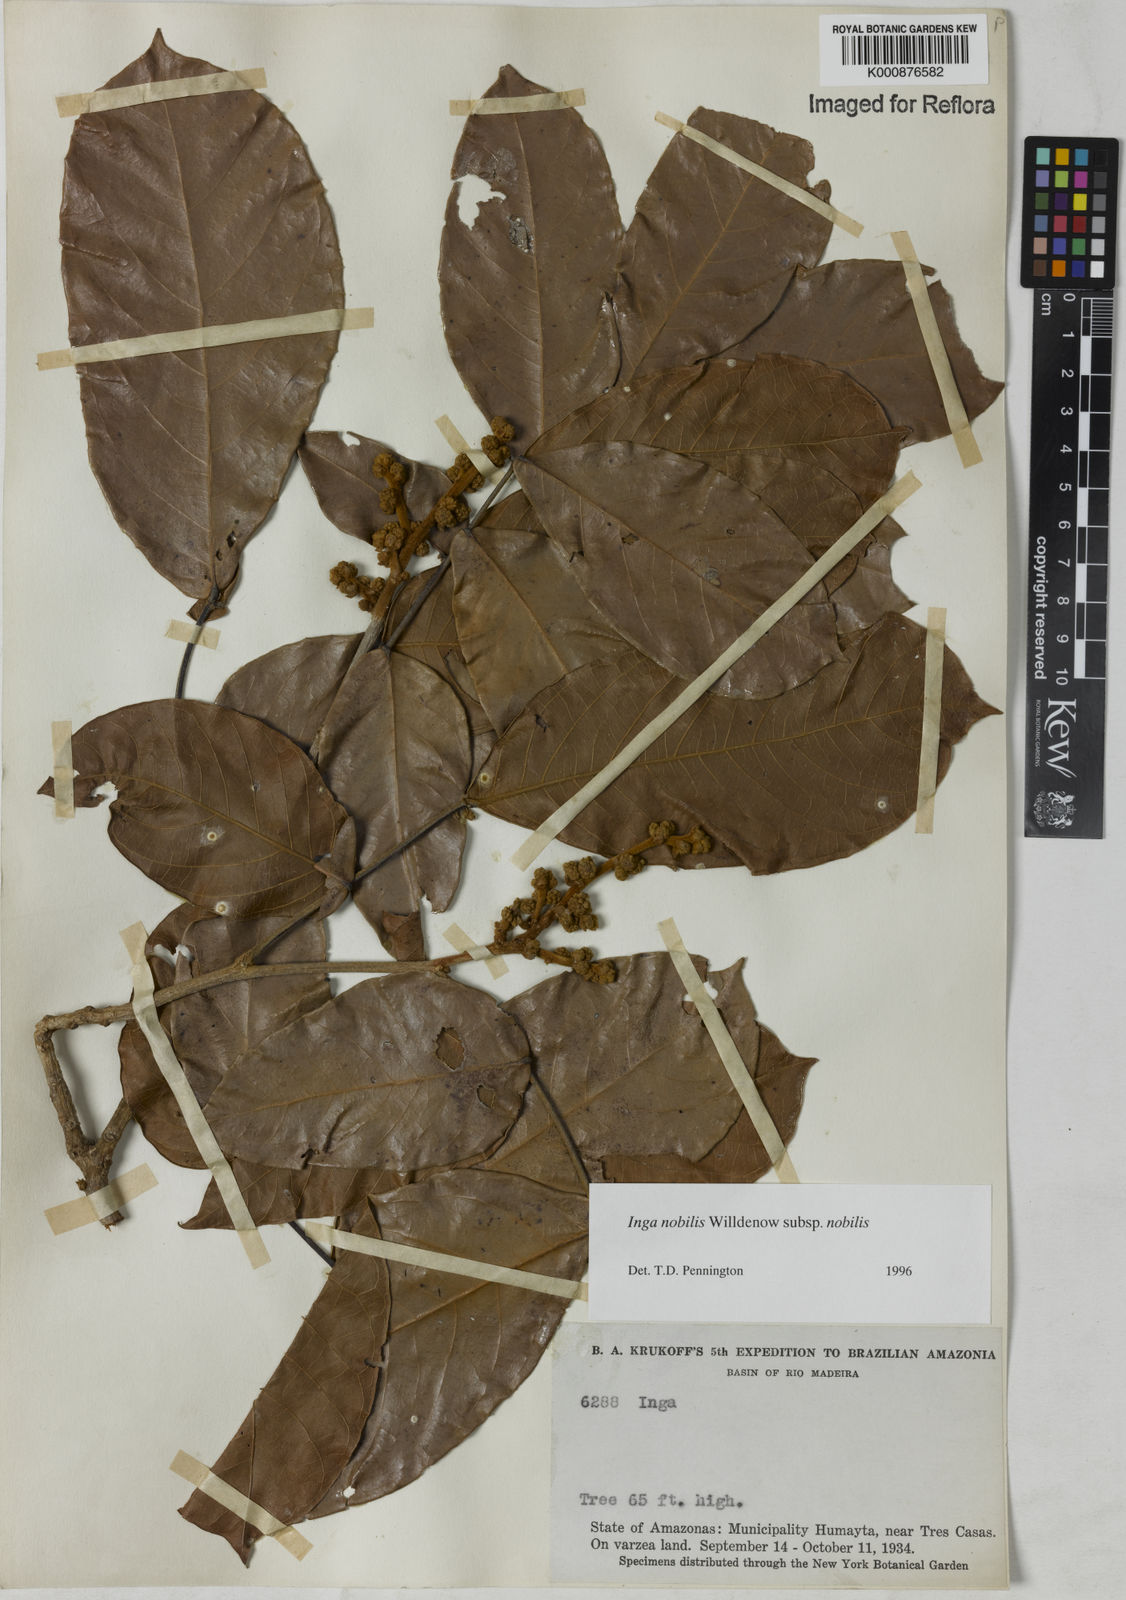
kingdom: Plantae
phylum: Tracheophyta
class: Magnoliopsida
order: Fabales
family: Fabaceae
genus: Inga
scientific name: Inga nobilis
